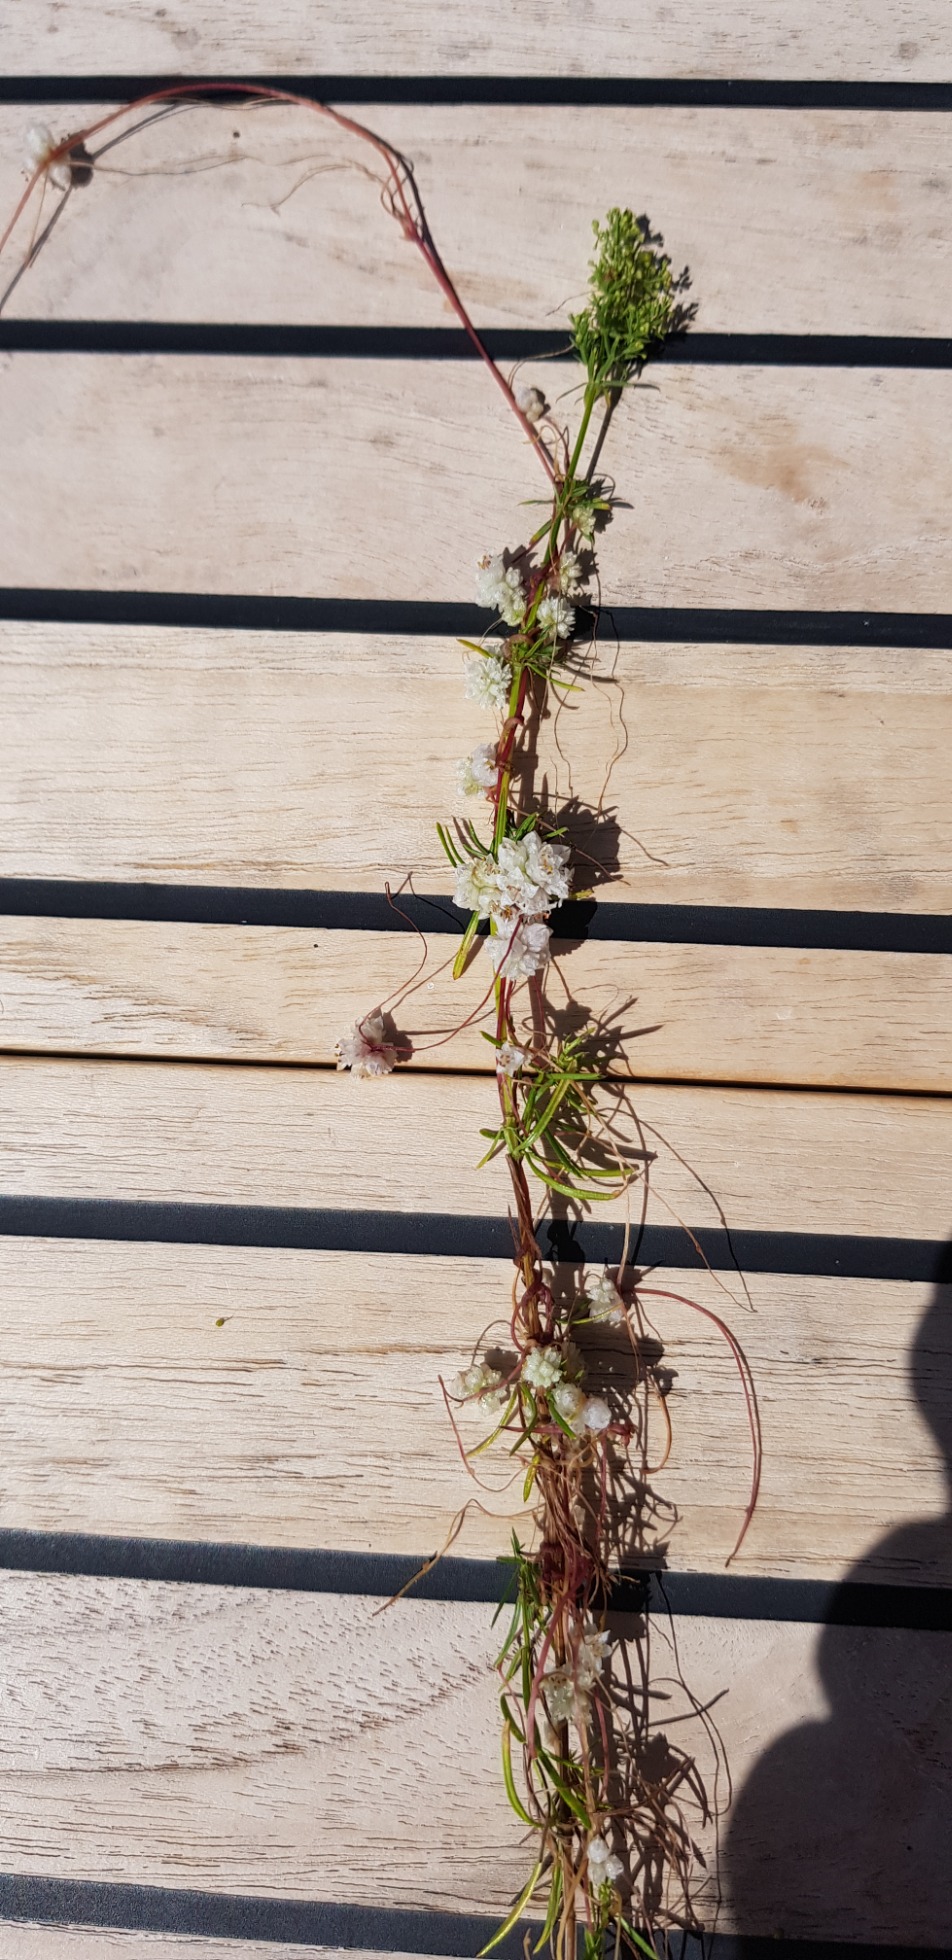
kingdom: Plantae
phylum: Tracheophyta
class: Magnoliopsida
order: Solanales
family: Convolvulaceae
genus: Cuscuta
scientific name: Cuscuta epithymum
